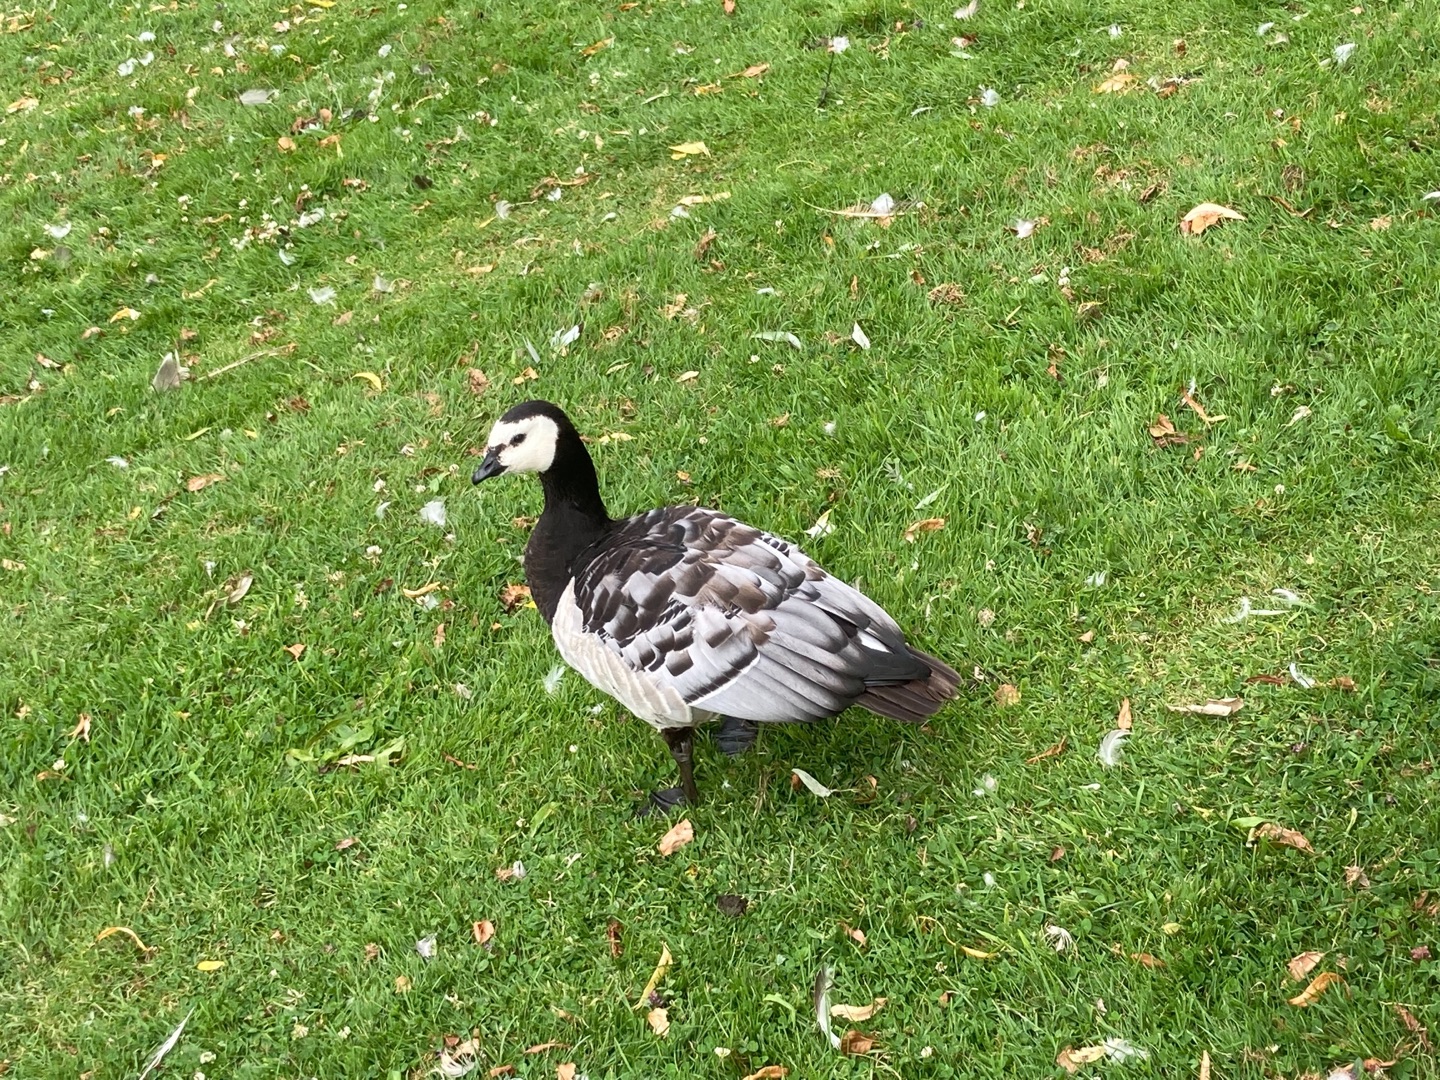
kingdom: Animalia
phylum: Chordata
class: Aves
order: Anseriformes
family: Anatidae
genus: Branta
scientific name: Branta leucopsis
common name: Bramgås
